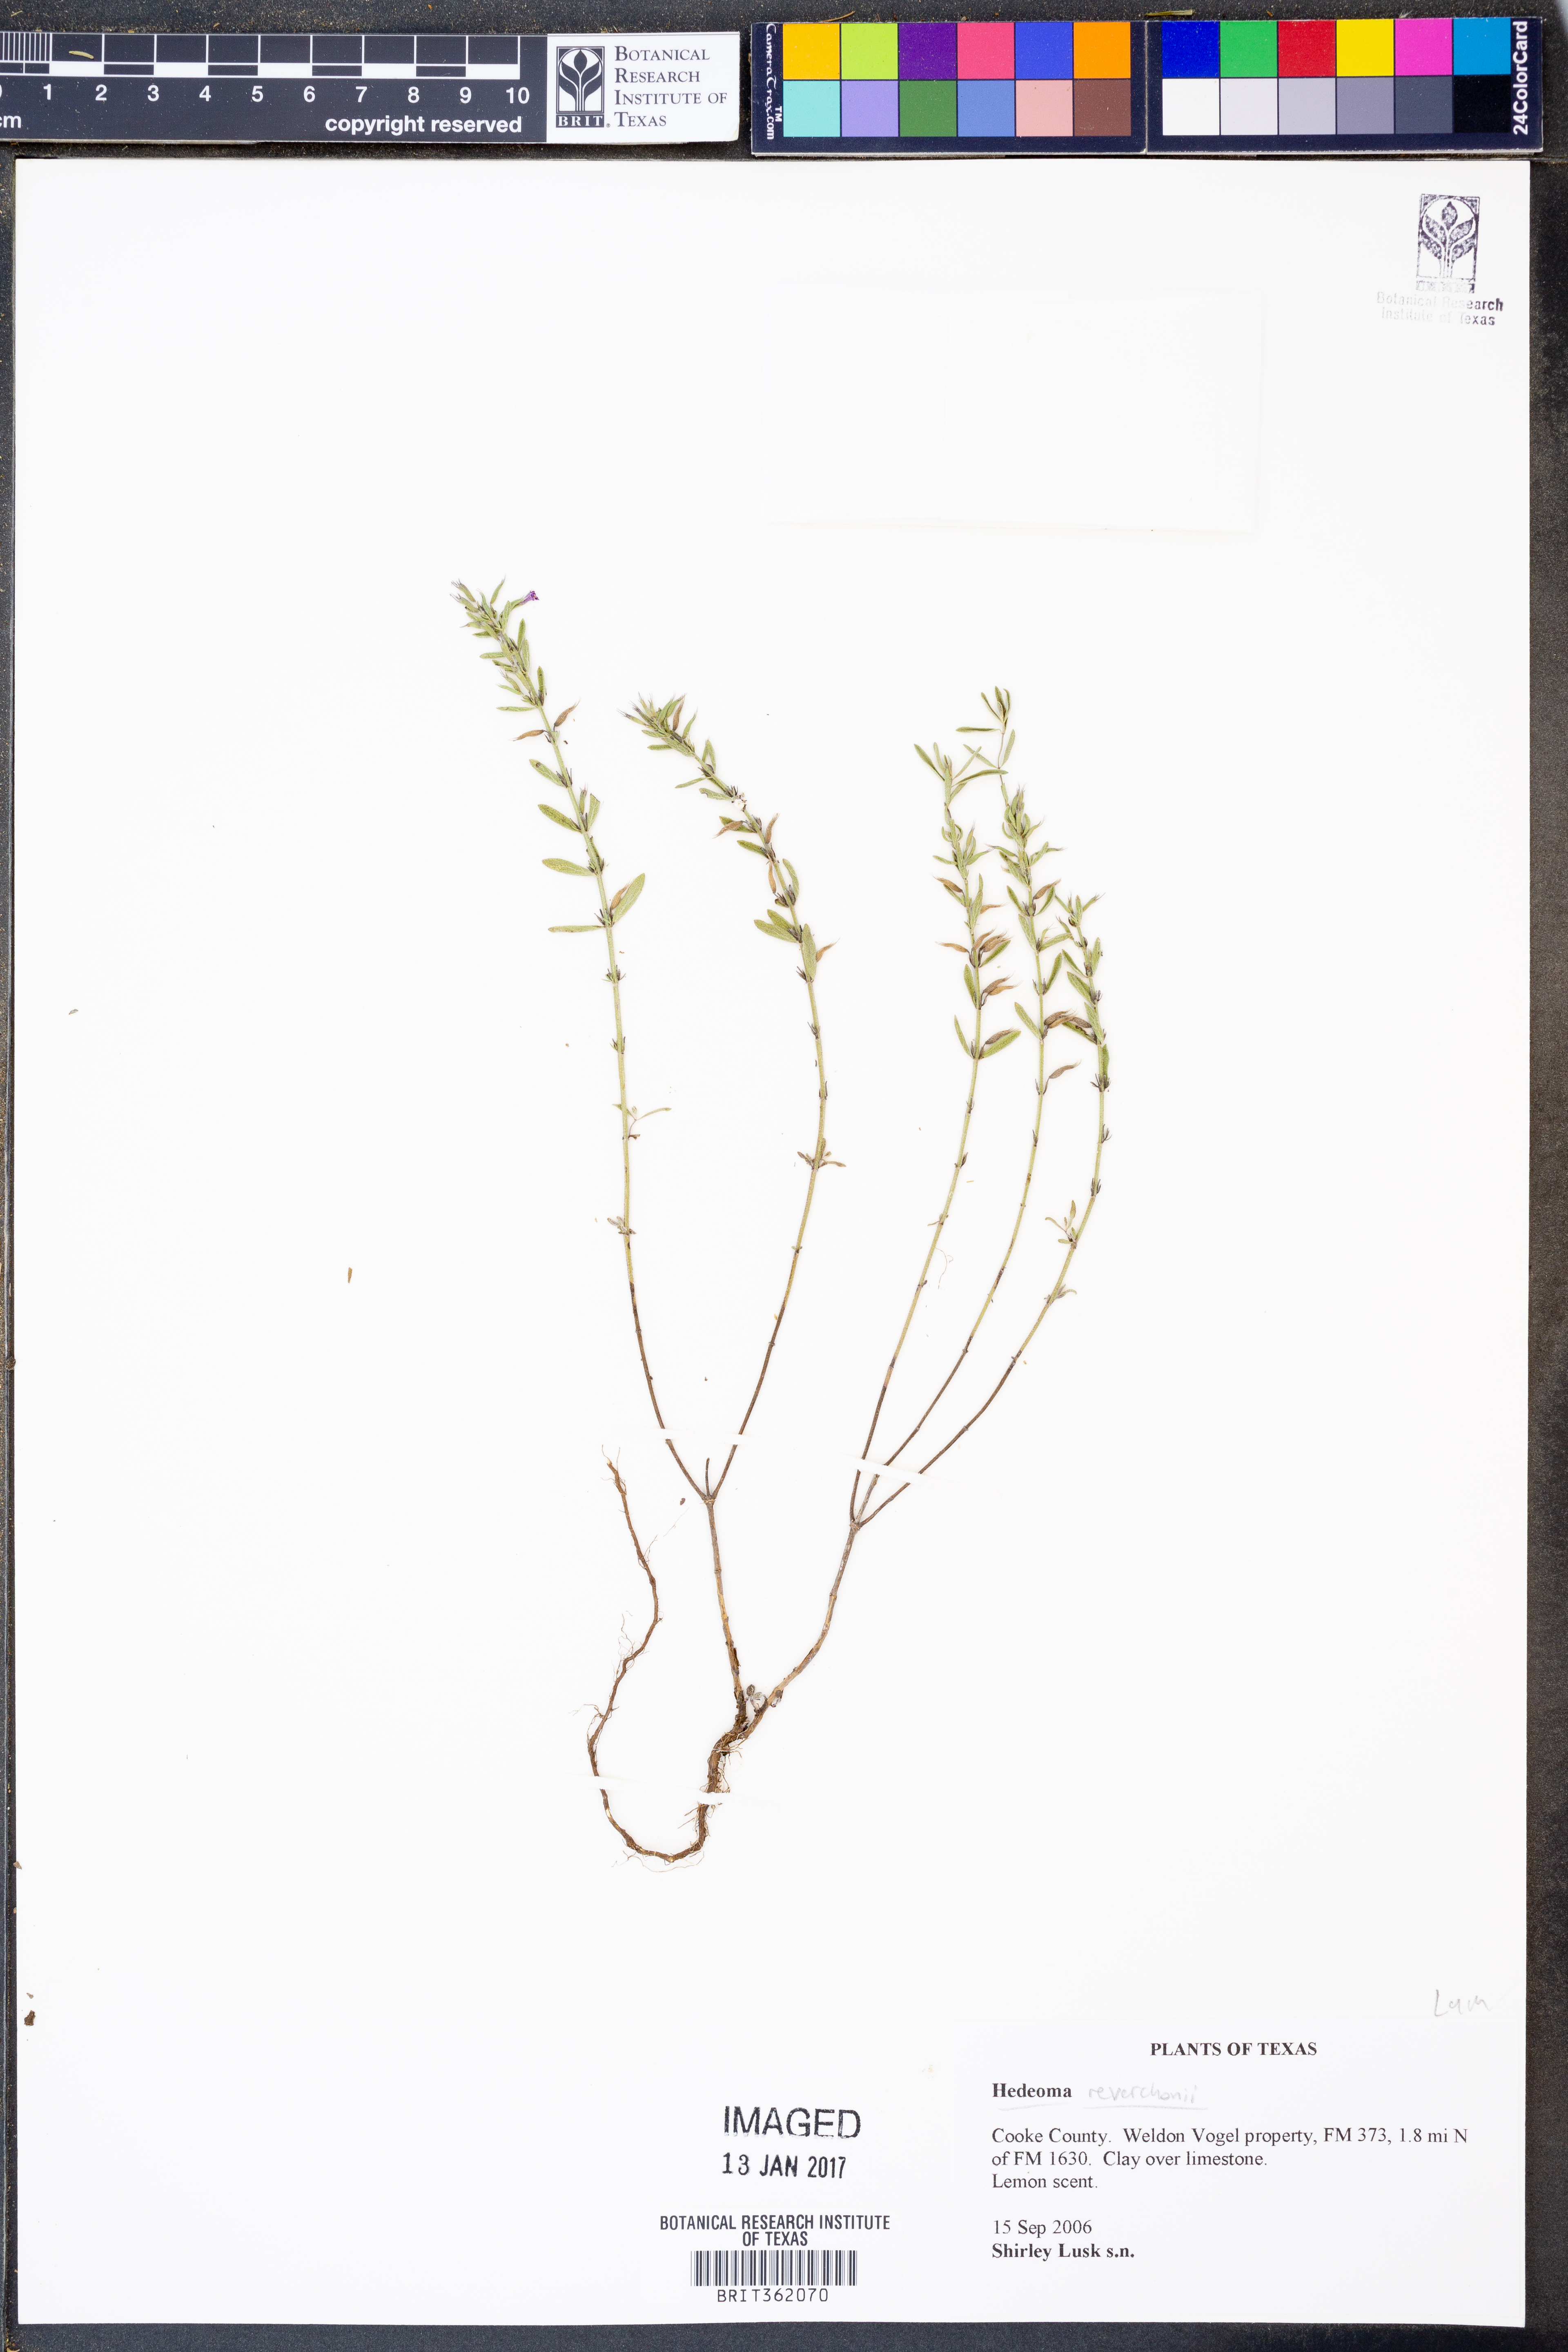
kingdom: Plantae
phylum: Tracheophyta
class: Magnoliopsida
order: Lamiales
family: Lamiaceae
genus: Hedeoma
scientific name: Hedeoma reverchonii
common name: Reverchon's false penny-royal
